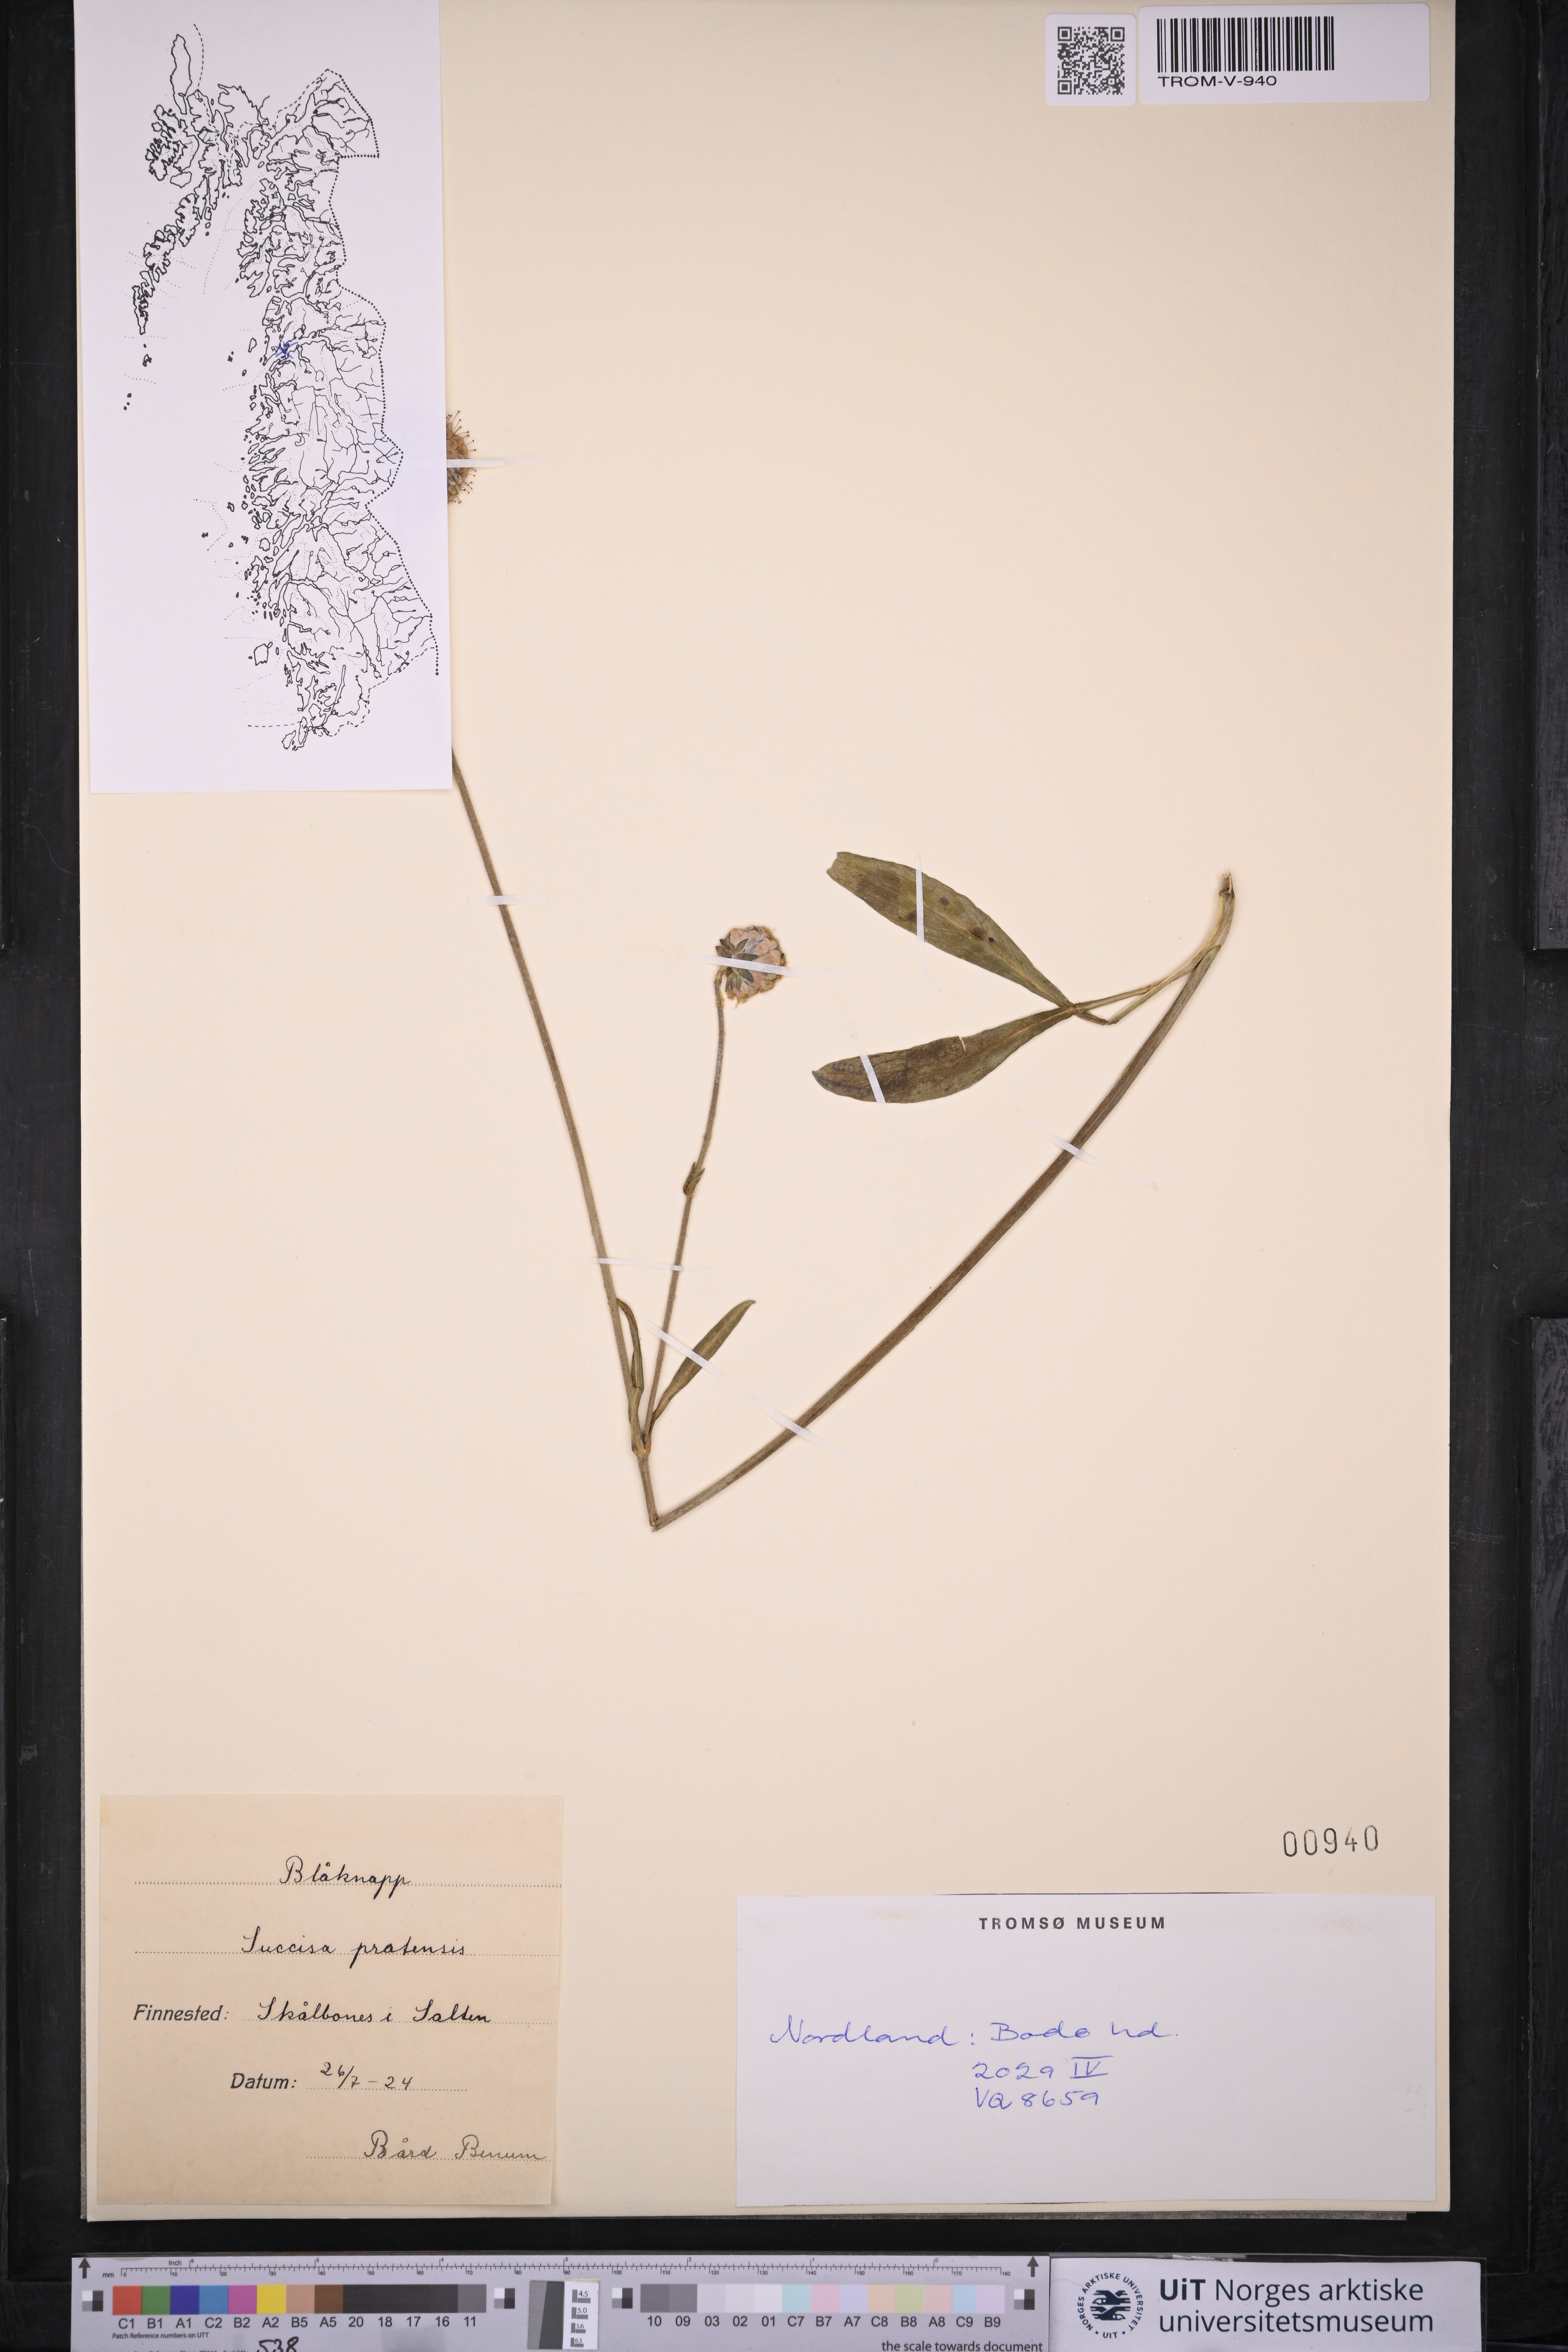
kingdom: Plantae
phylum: Tracheophyta
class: Magnoliopsida
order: Dipsacales
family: Caprifoliaceae
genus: Succisa
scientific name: Succisa pratensis
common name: Devil's-bit
